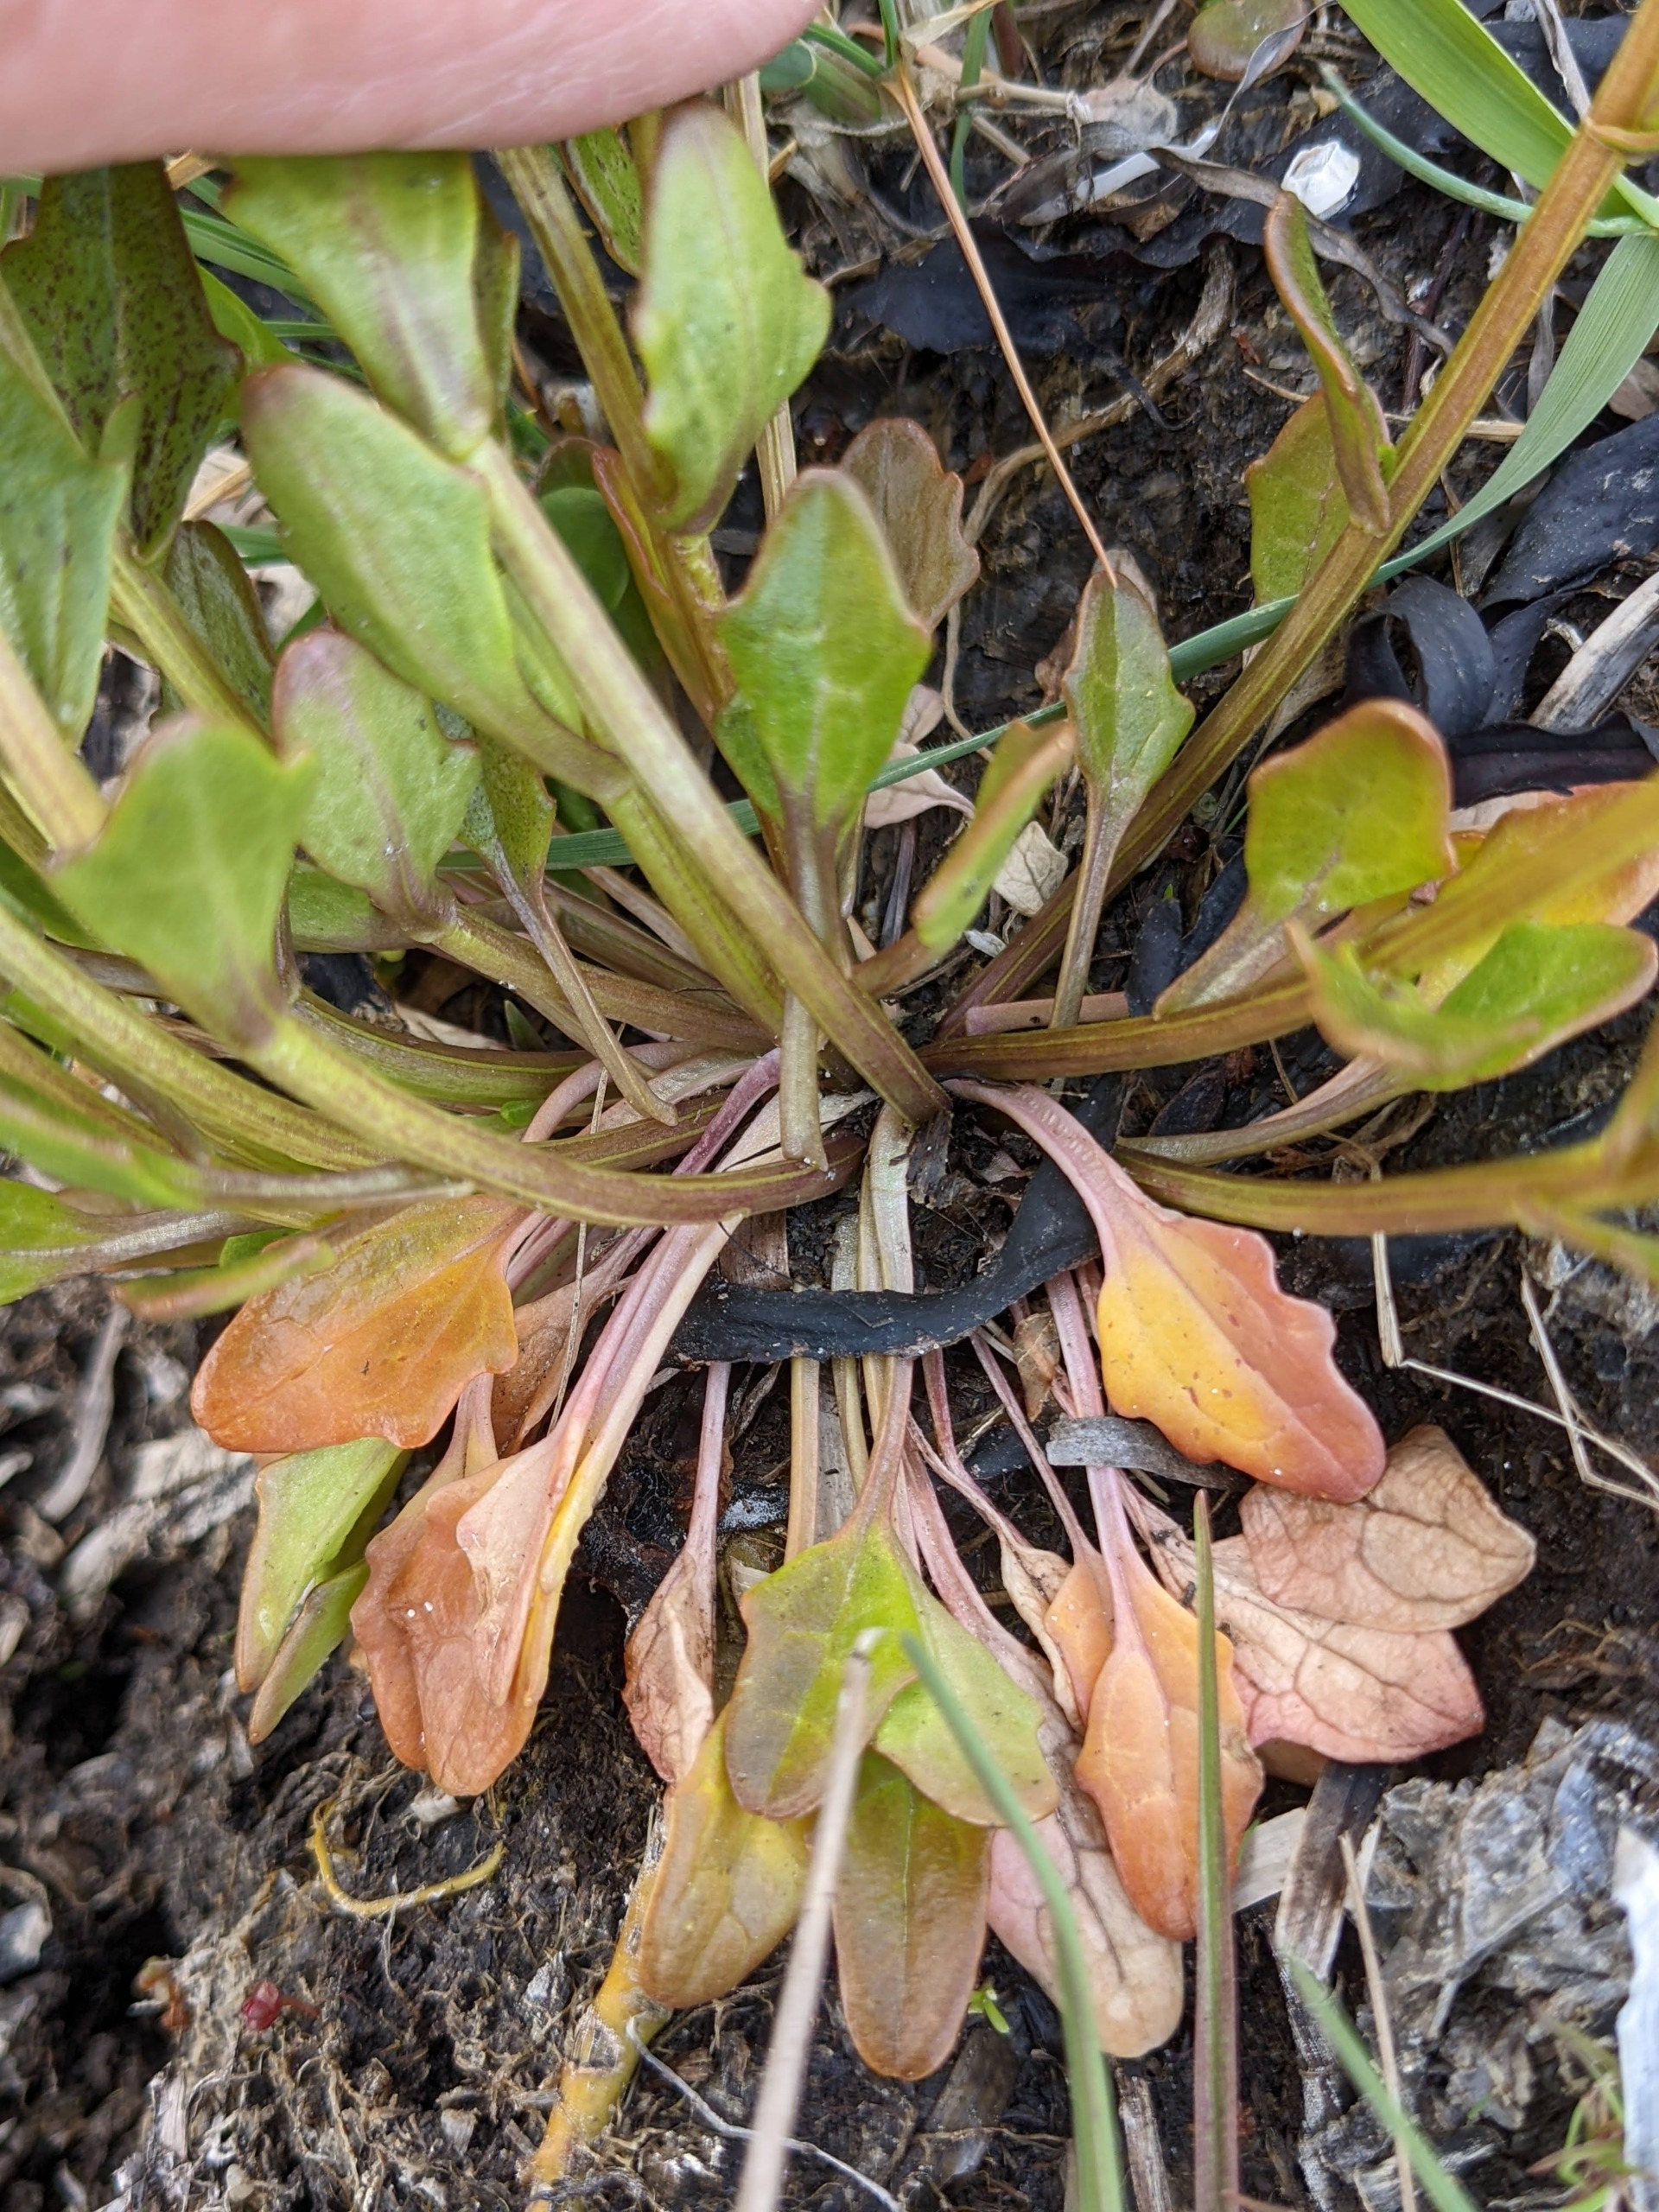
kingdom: Plantae
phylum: Tracheophyta
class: Magnoliopsida
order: Brassicales
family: Brassicaceae
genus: Cochlearia
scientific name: Cochlearia anglica
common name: Engelsk kokleare
